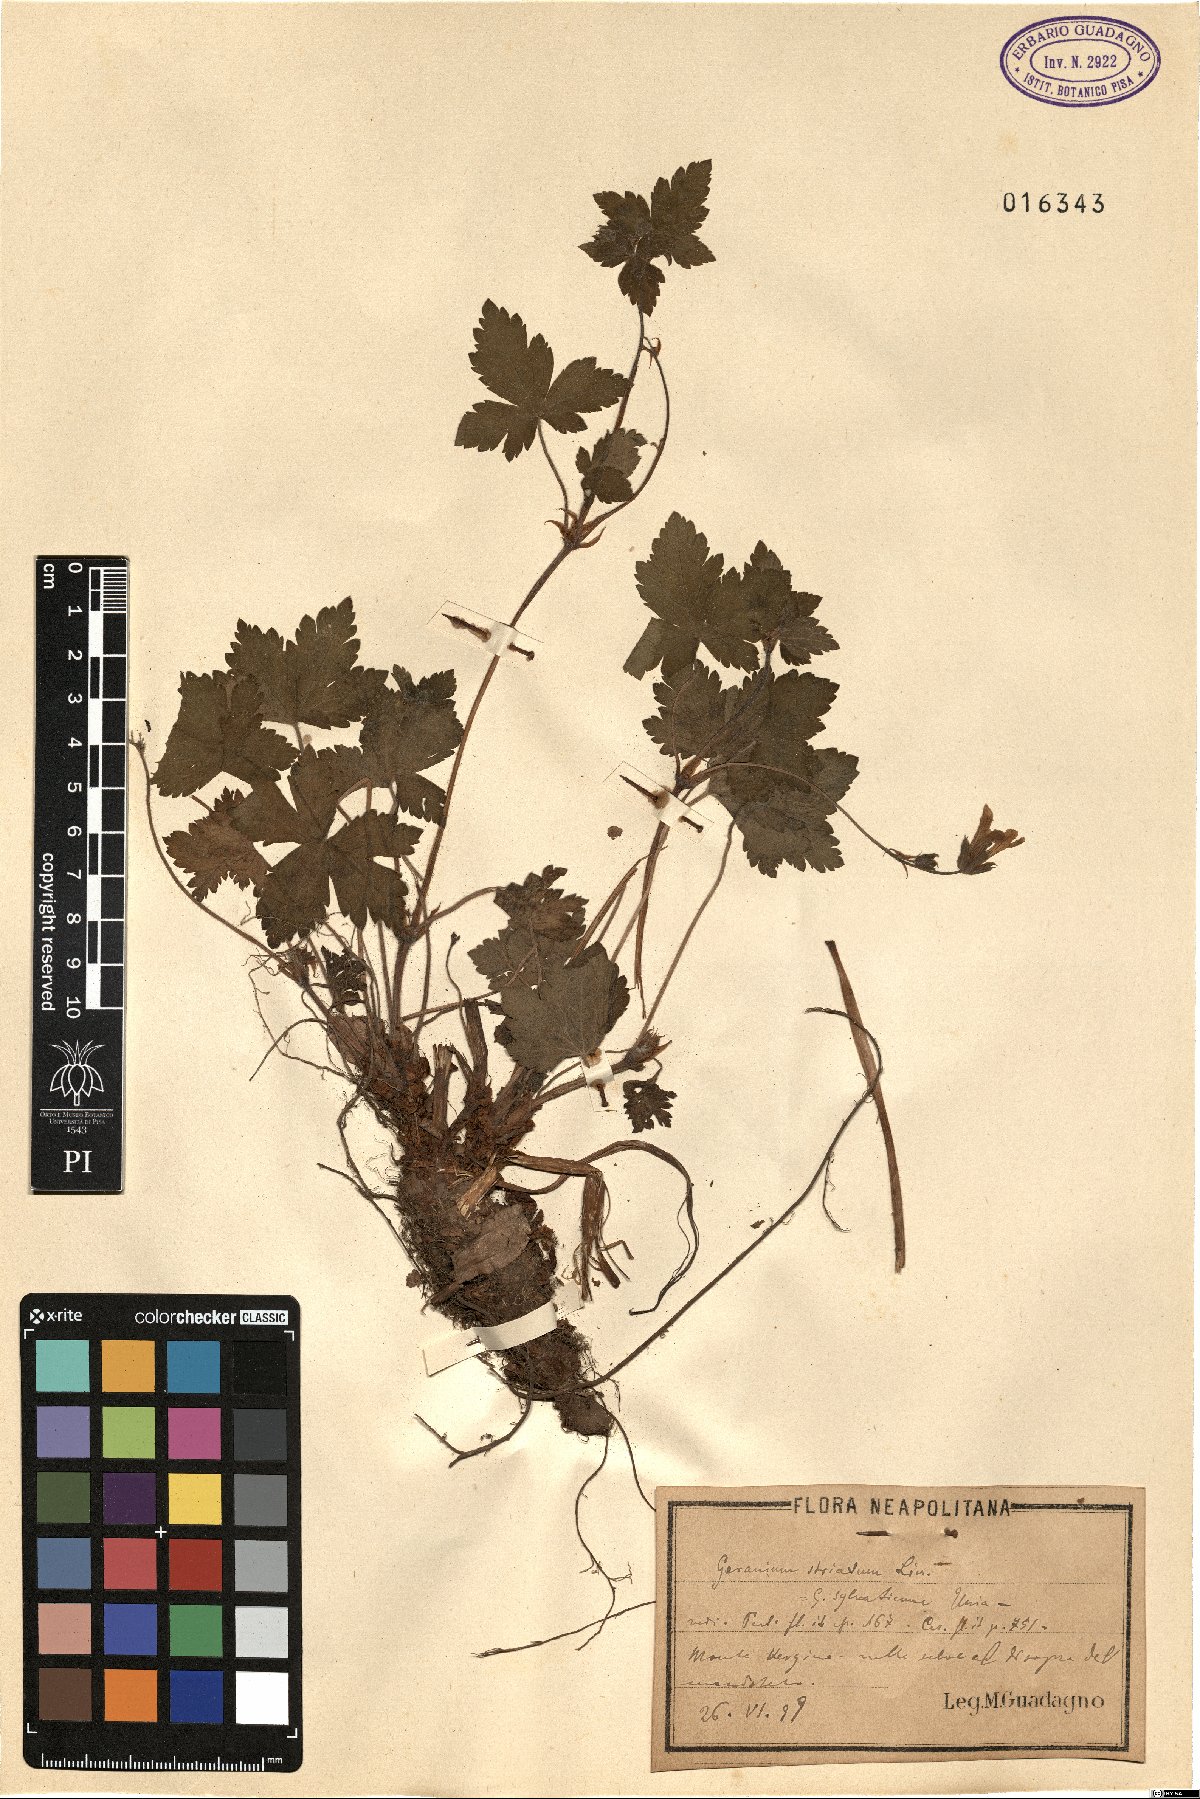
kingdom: Plantae
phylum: Tracheophyta
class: Magnoliopsida
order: Geraniales
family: Geraniaceae
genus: Geranium
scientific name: Geranium versicolor
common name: Pencilled crane's-bill
